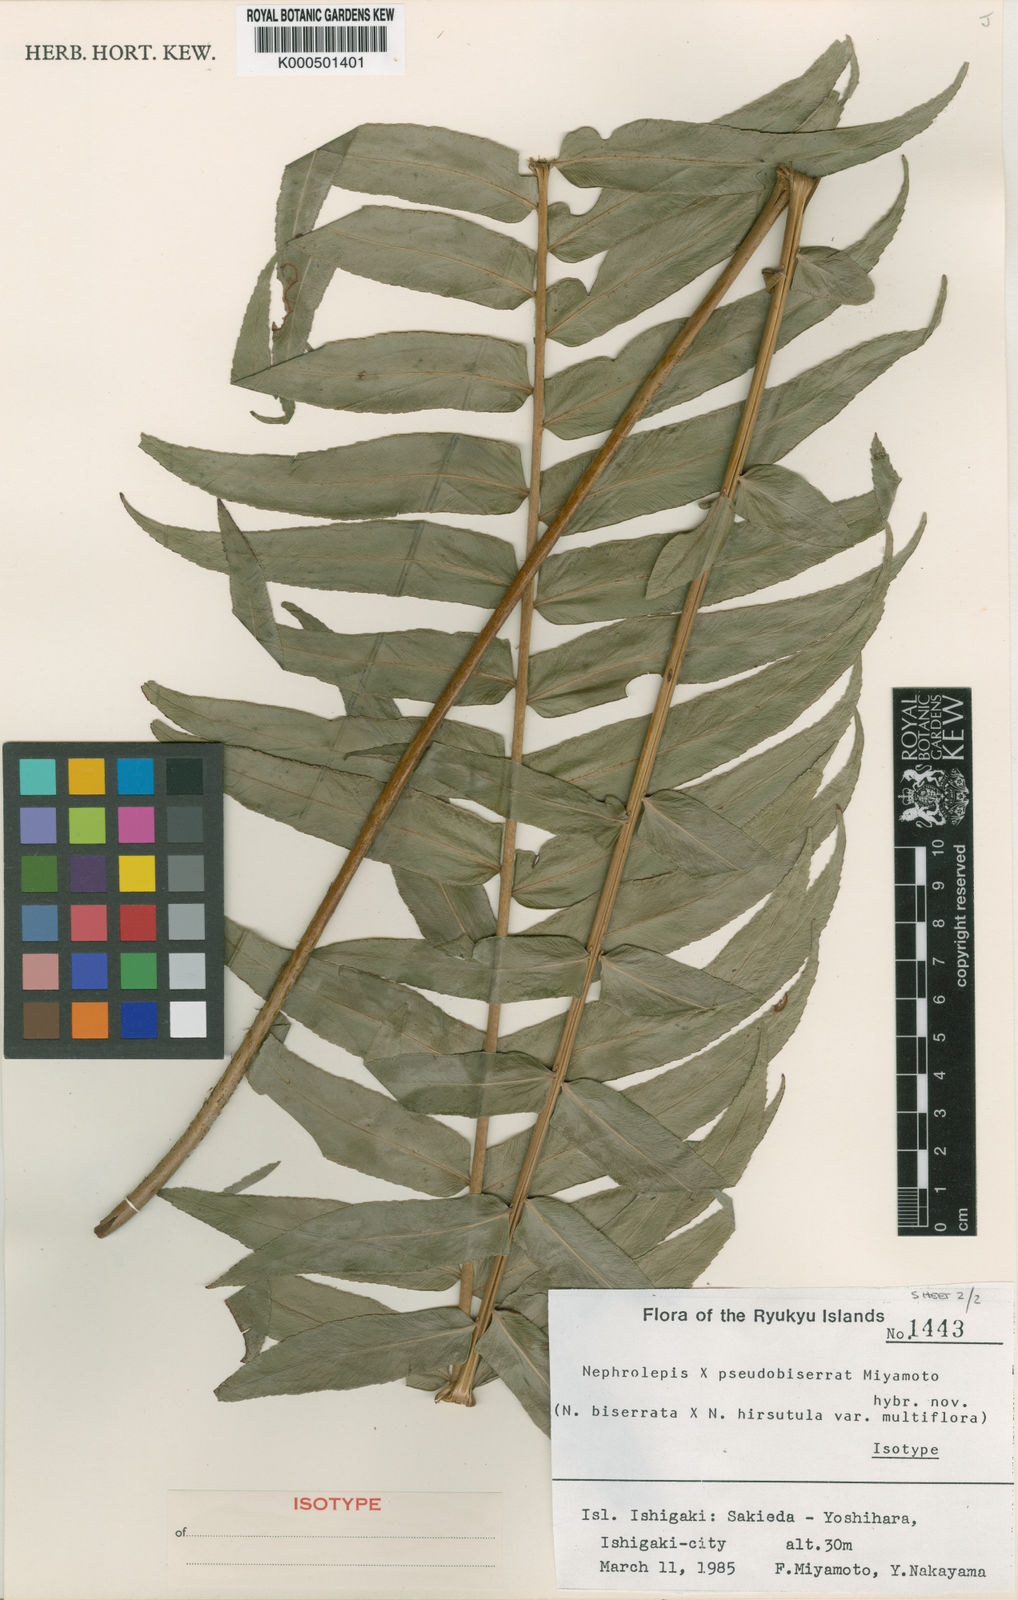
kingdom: Plantae
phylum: Tracheophyta
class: Polypodiopsida
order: Polypodiales
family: Nephrolepidaceae
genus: Nephrolepis
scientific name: Nephrolepis pseudobiserrata
